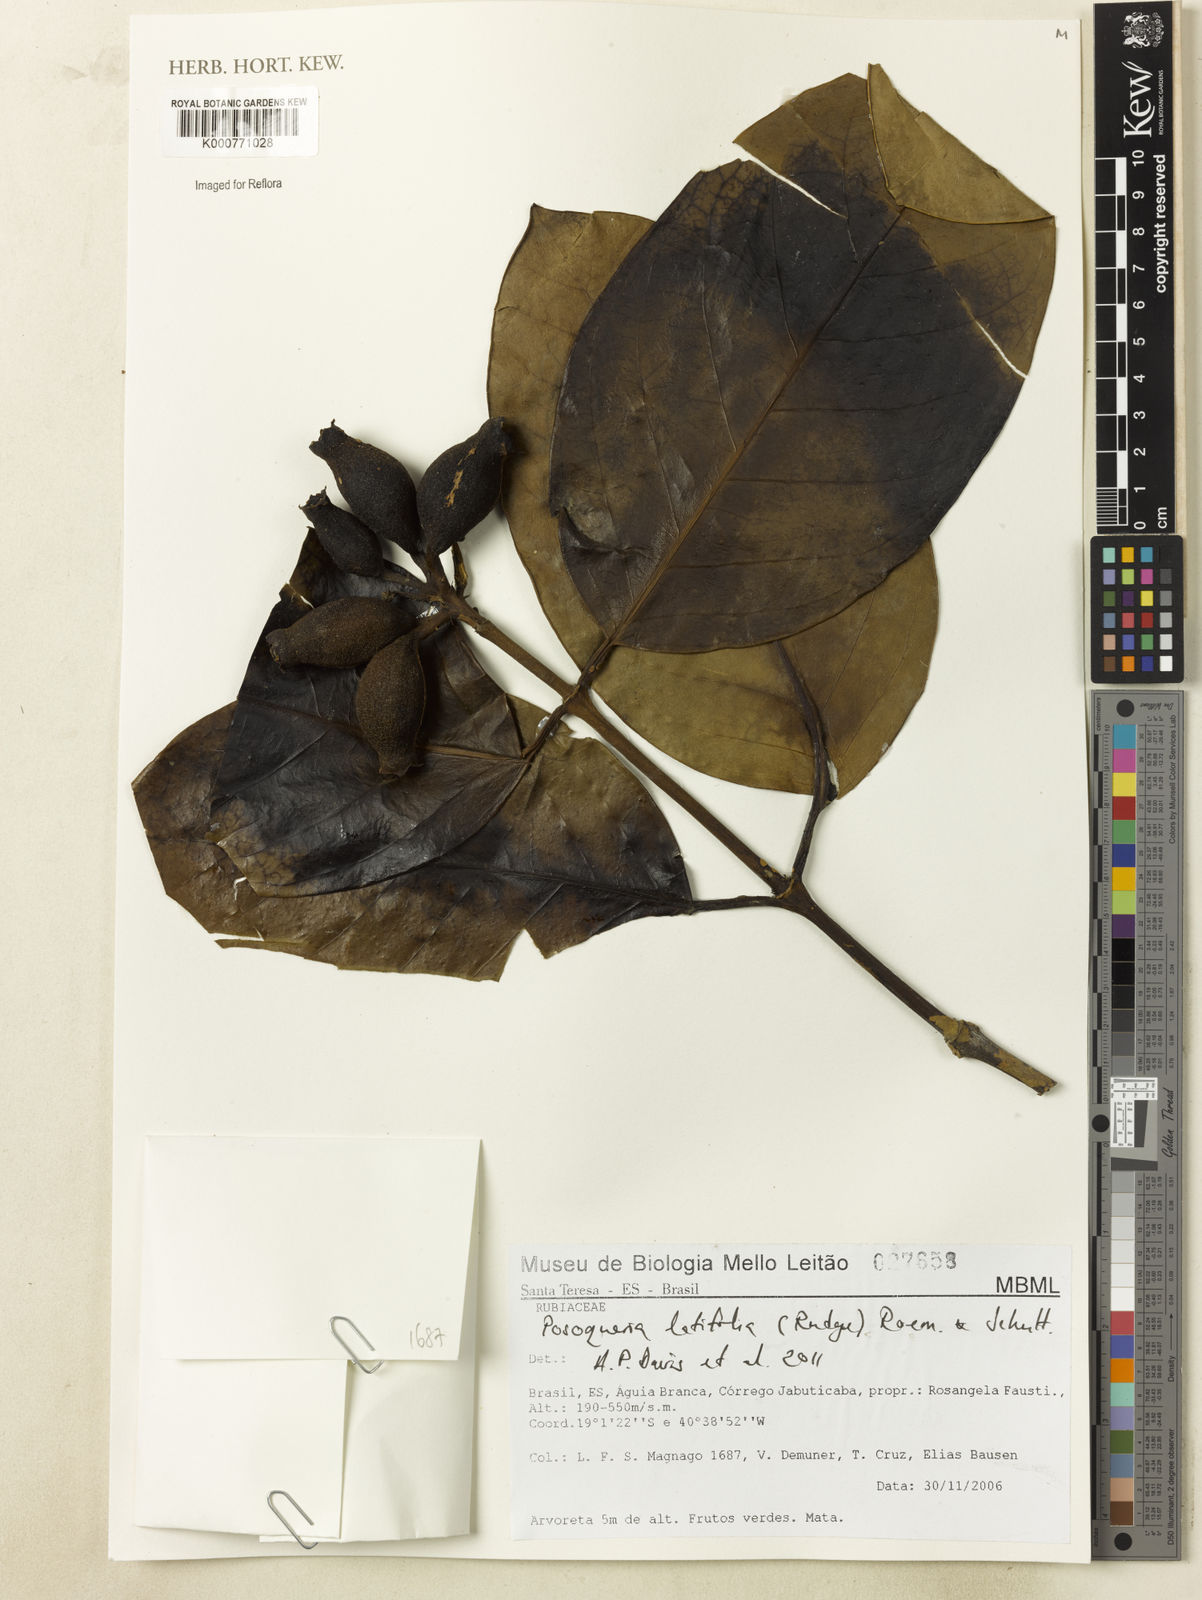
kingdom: Plantae
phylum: Tracheophyta
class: Magnoliopsida
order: Gentianales
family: Rubiaceae
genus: Posoqueria
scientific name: Posoqueria latifolia
